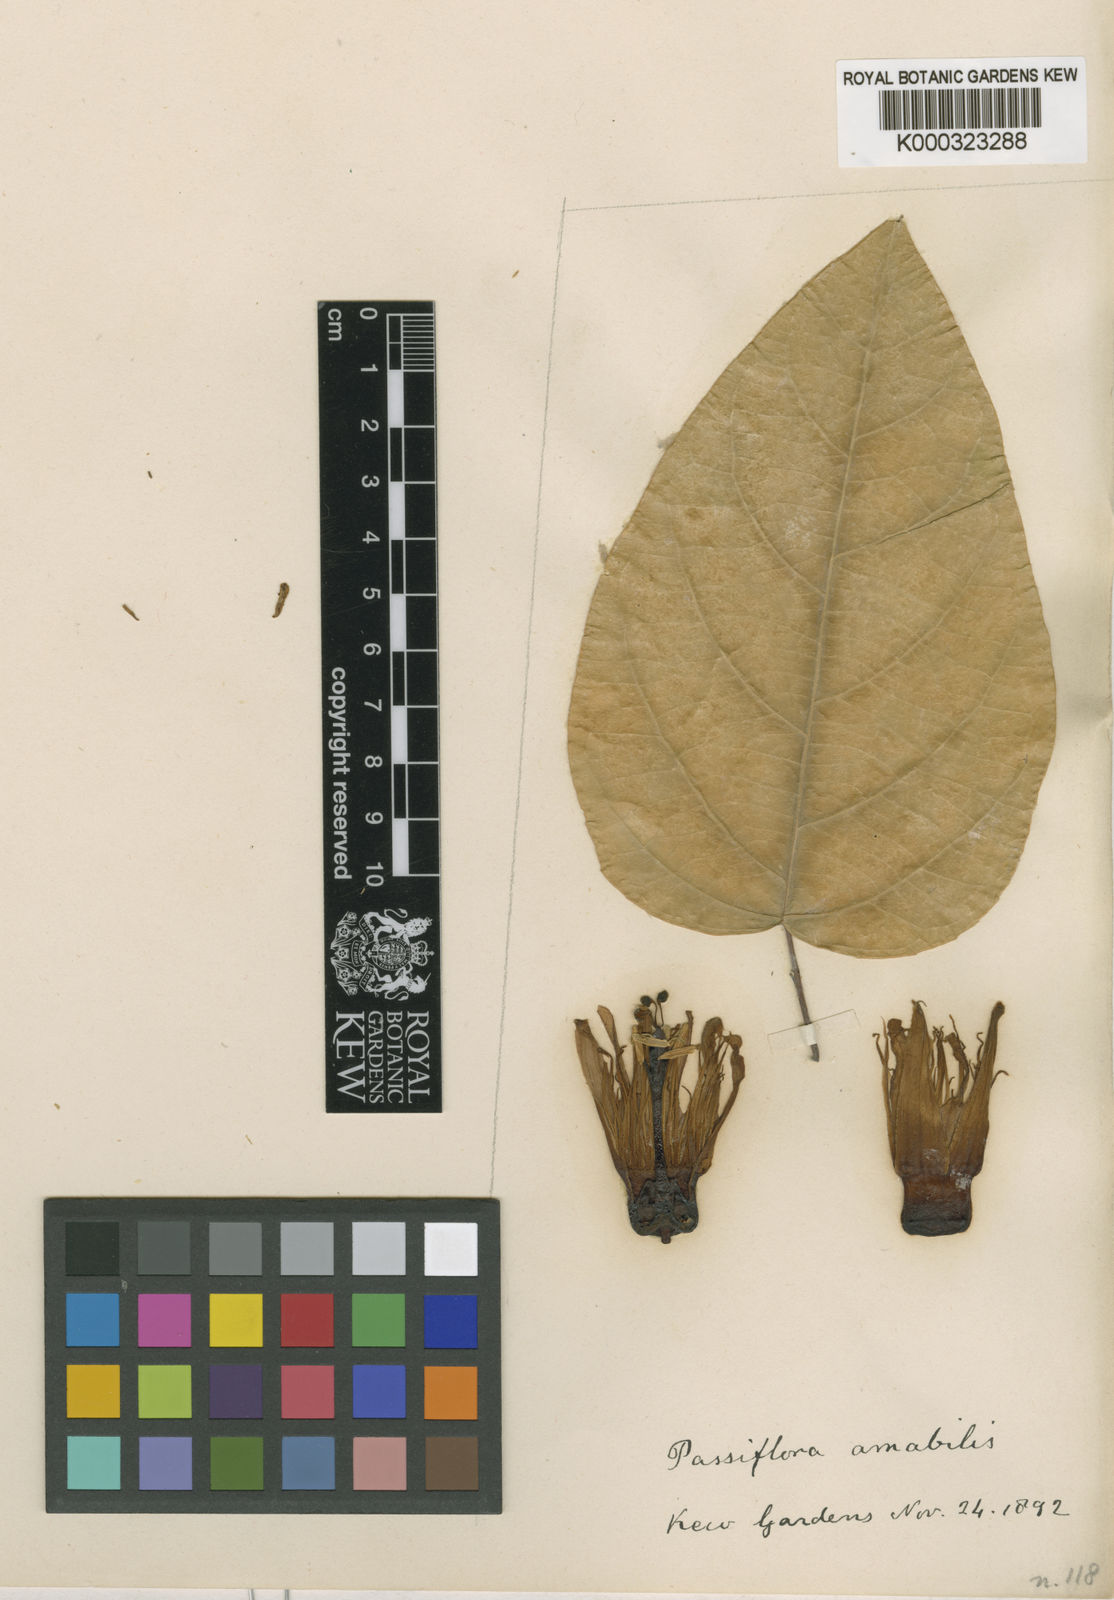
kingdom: Plantae
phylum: Tracheophyta
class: Magnoliopsida
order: Malpighiales
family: Passifloraceae
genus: Passiflora
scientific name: Passiflora
